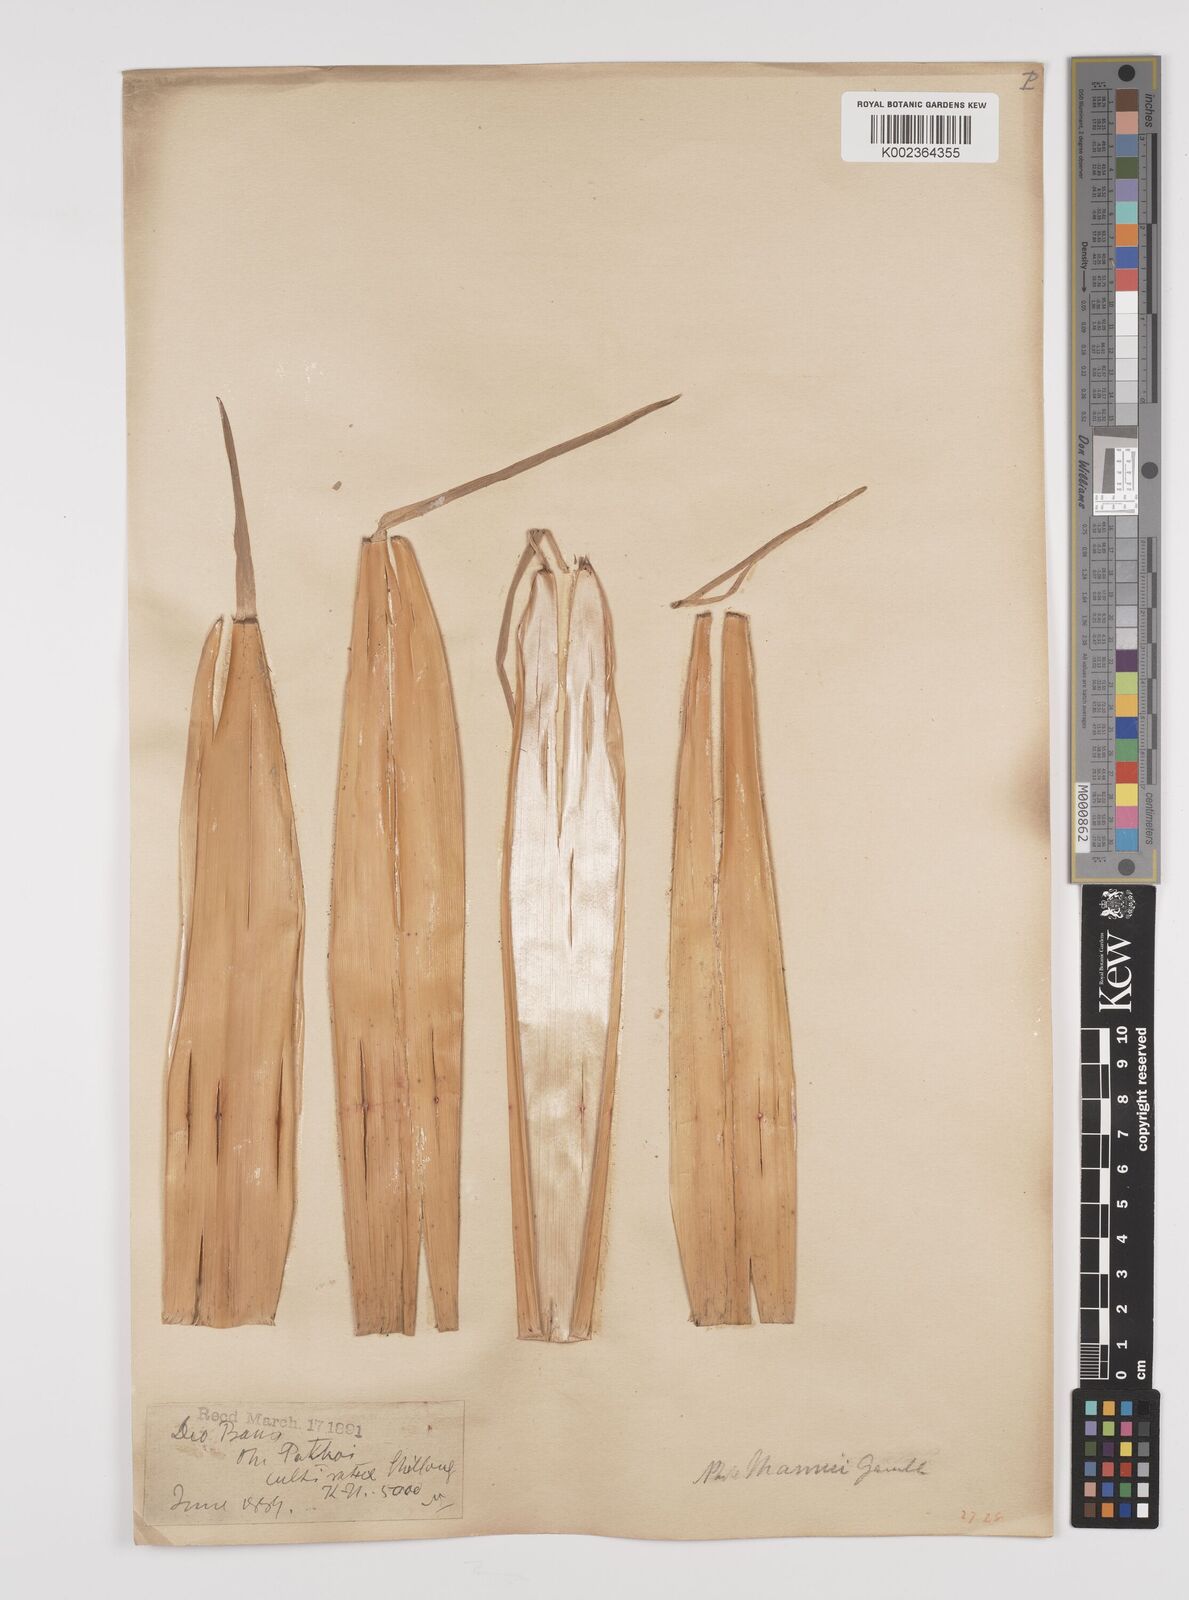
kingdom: Plantae
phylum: Tracheophyta
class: Liliopsida
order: Poales
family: Poaceae
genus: Phyllostachys
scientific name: Phyllostachys mannii
